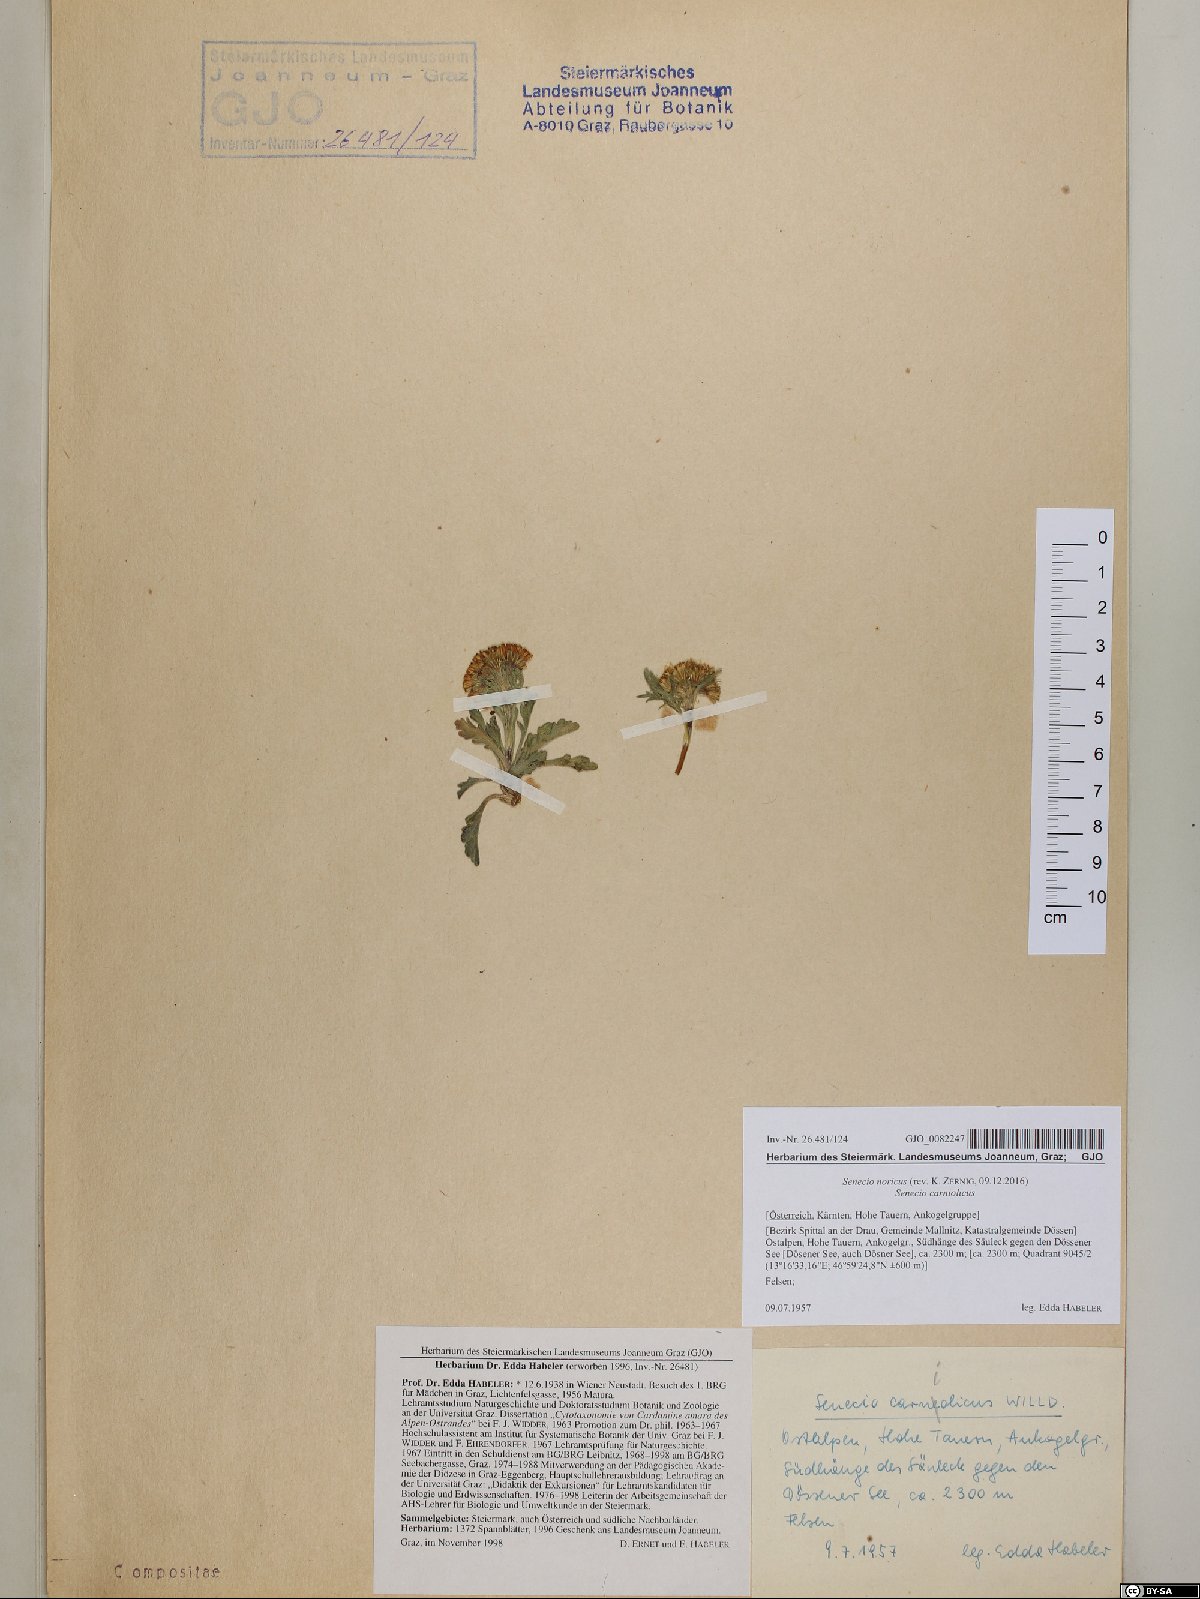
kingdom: Plantae
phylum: Tracheophyta
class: Magnoliopsida
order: Asterales
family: Asteraceae
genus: Jacobaea
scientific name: Jacobaea norica
